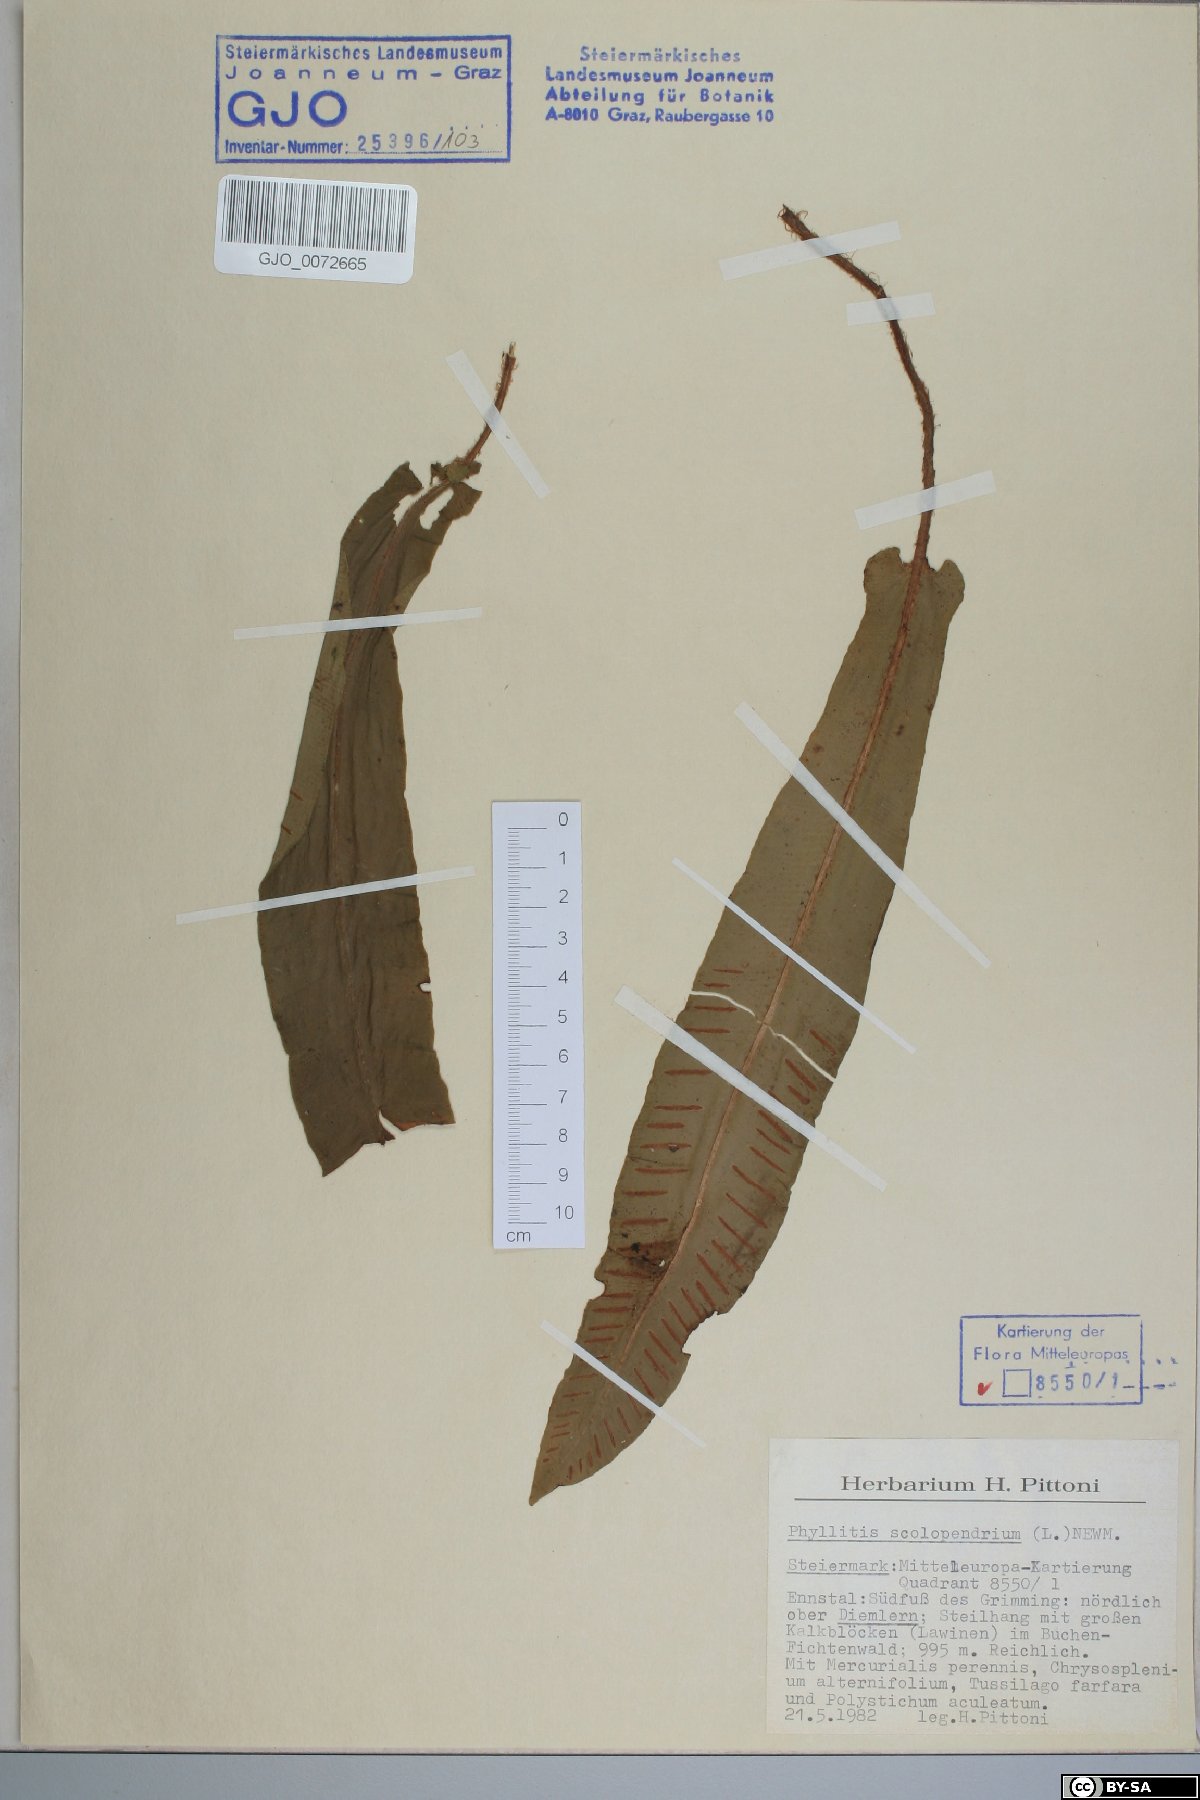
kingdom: Plantae
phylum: Tracheophyta
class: Polypodiopsida
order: Polypodiales
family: Aspleniaceae
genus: Asplenium
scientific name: Asplenium scolopendrium
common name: Hart's-tongue fern
